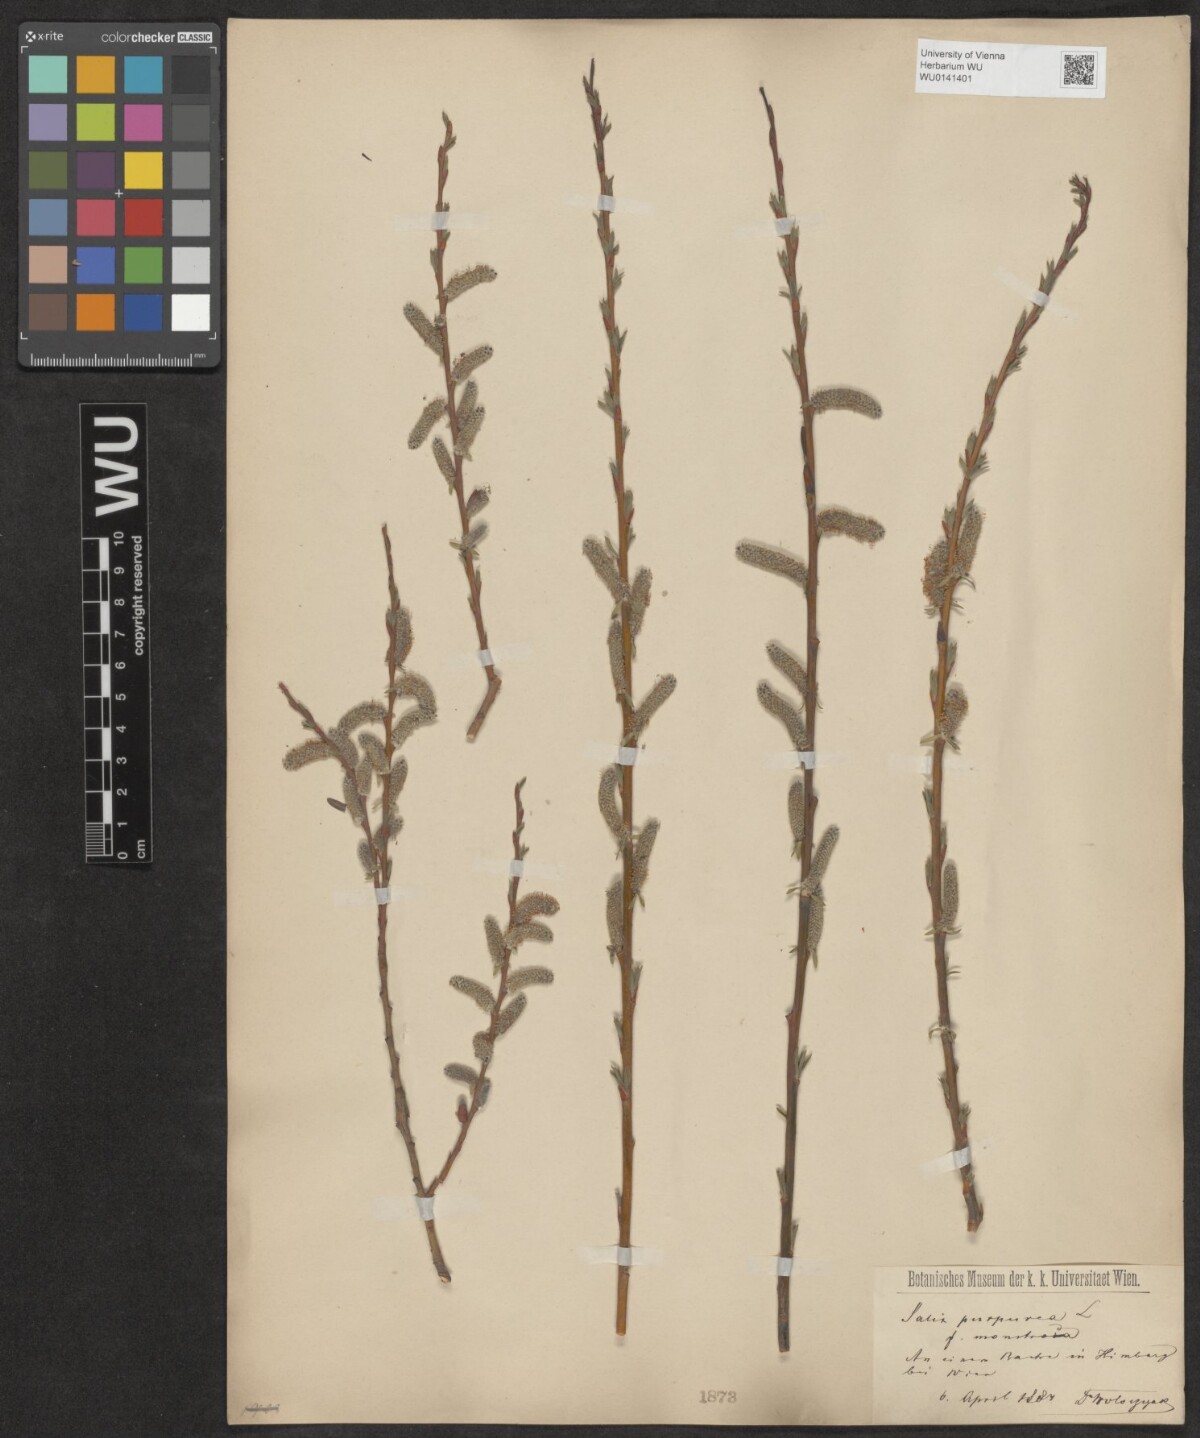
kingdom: Plantae
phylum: Tracheophyta
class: Magnoliopsida
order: Malpighiales
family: Salicaceae
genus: Salix
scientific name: Salix purpurea
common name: Purple willow
